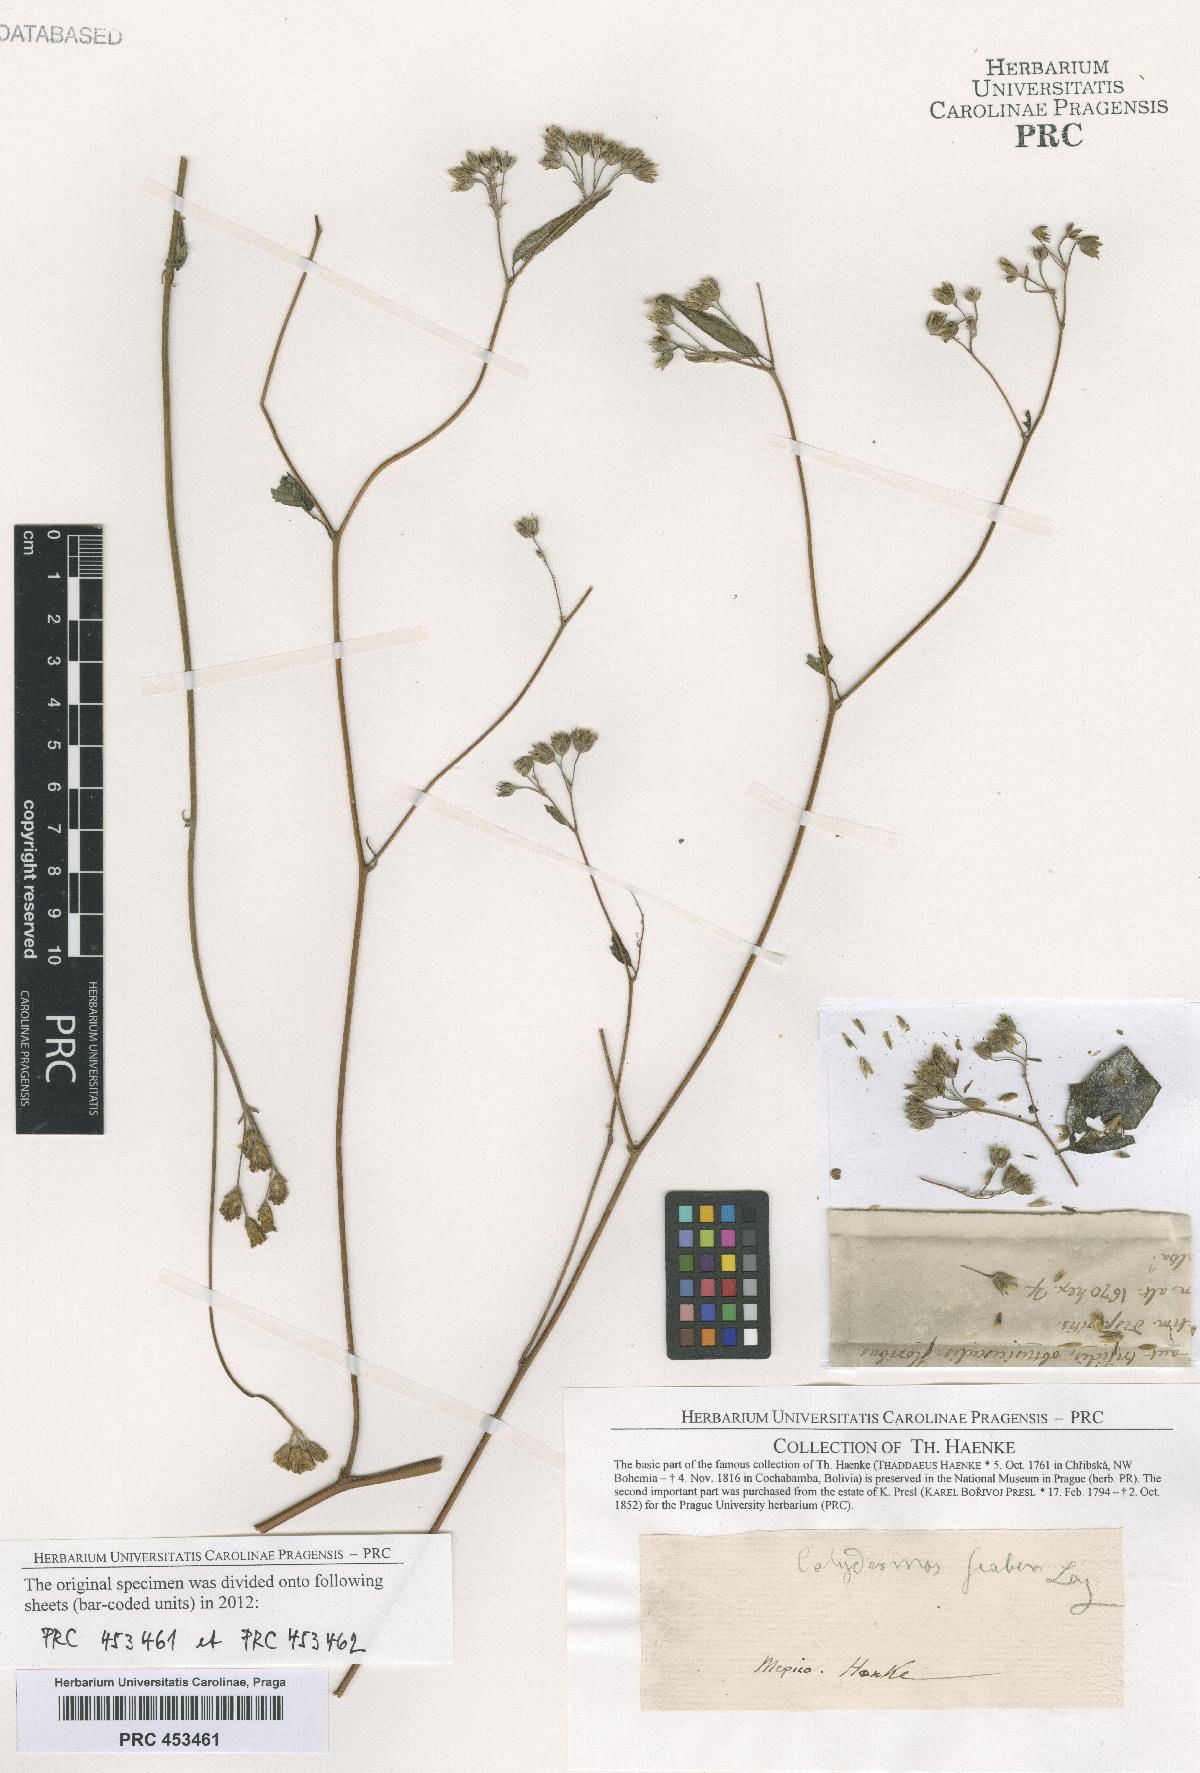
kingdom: Plantae
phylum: Tracheophyta
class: Magnoliopsida
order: Solanales
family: Solanaceae
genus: Nicandra
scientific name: Nicandra
